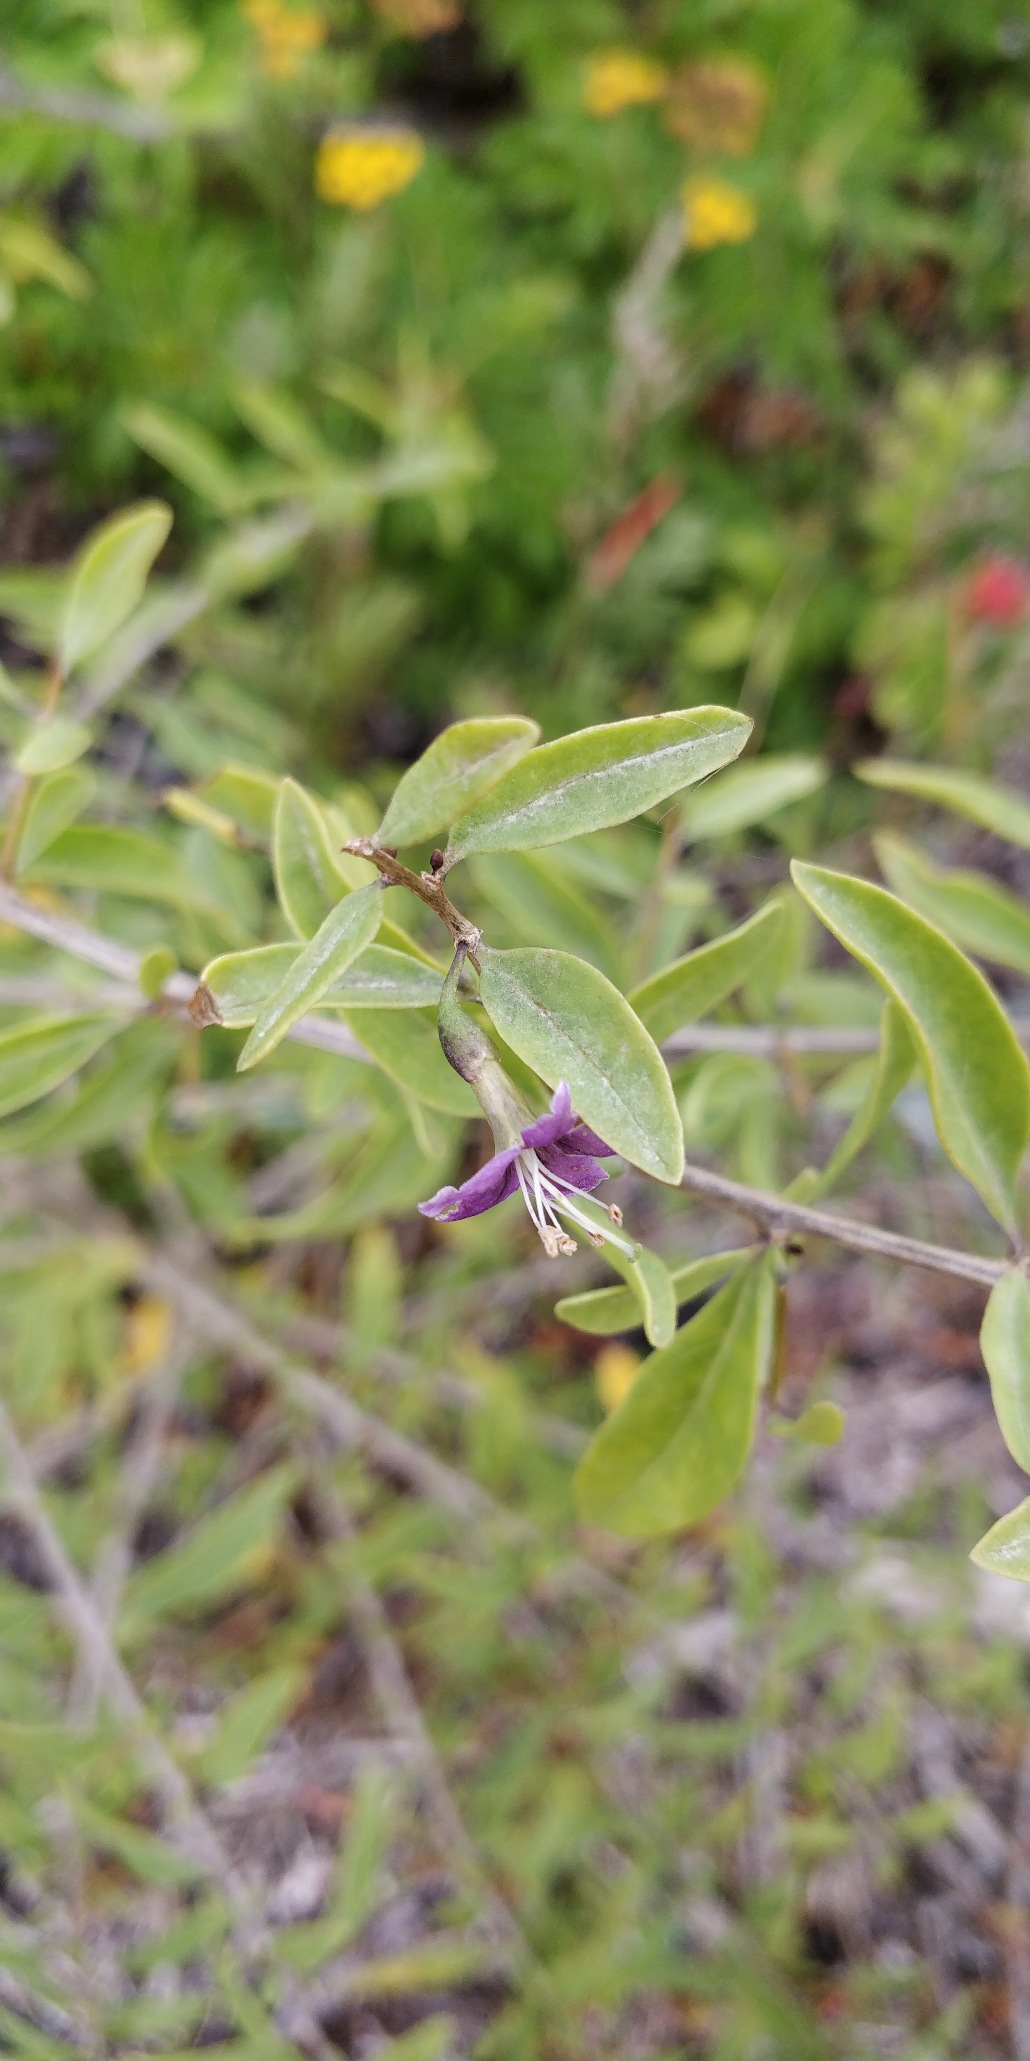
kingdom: Plantae
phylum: Tracheophyta
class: Magnoliopsida
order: Solanales
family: Solanaceae
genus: Lycium
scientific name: Lycium barbarum
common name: Bukketorn
